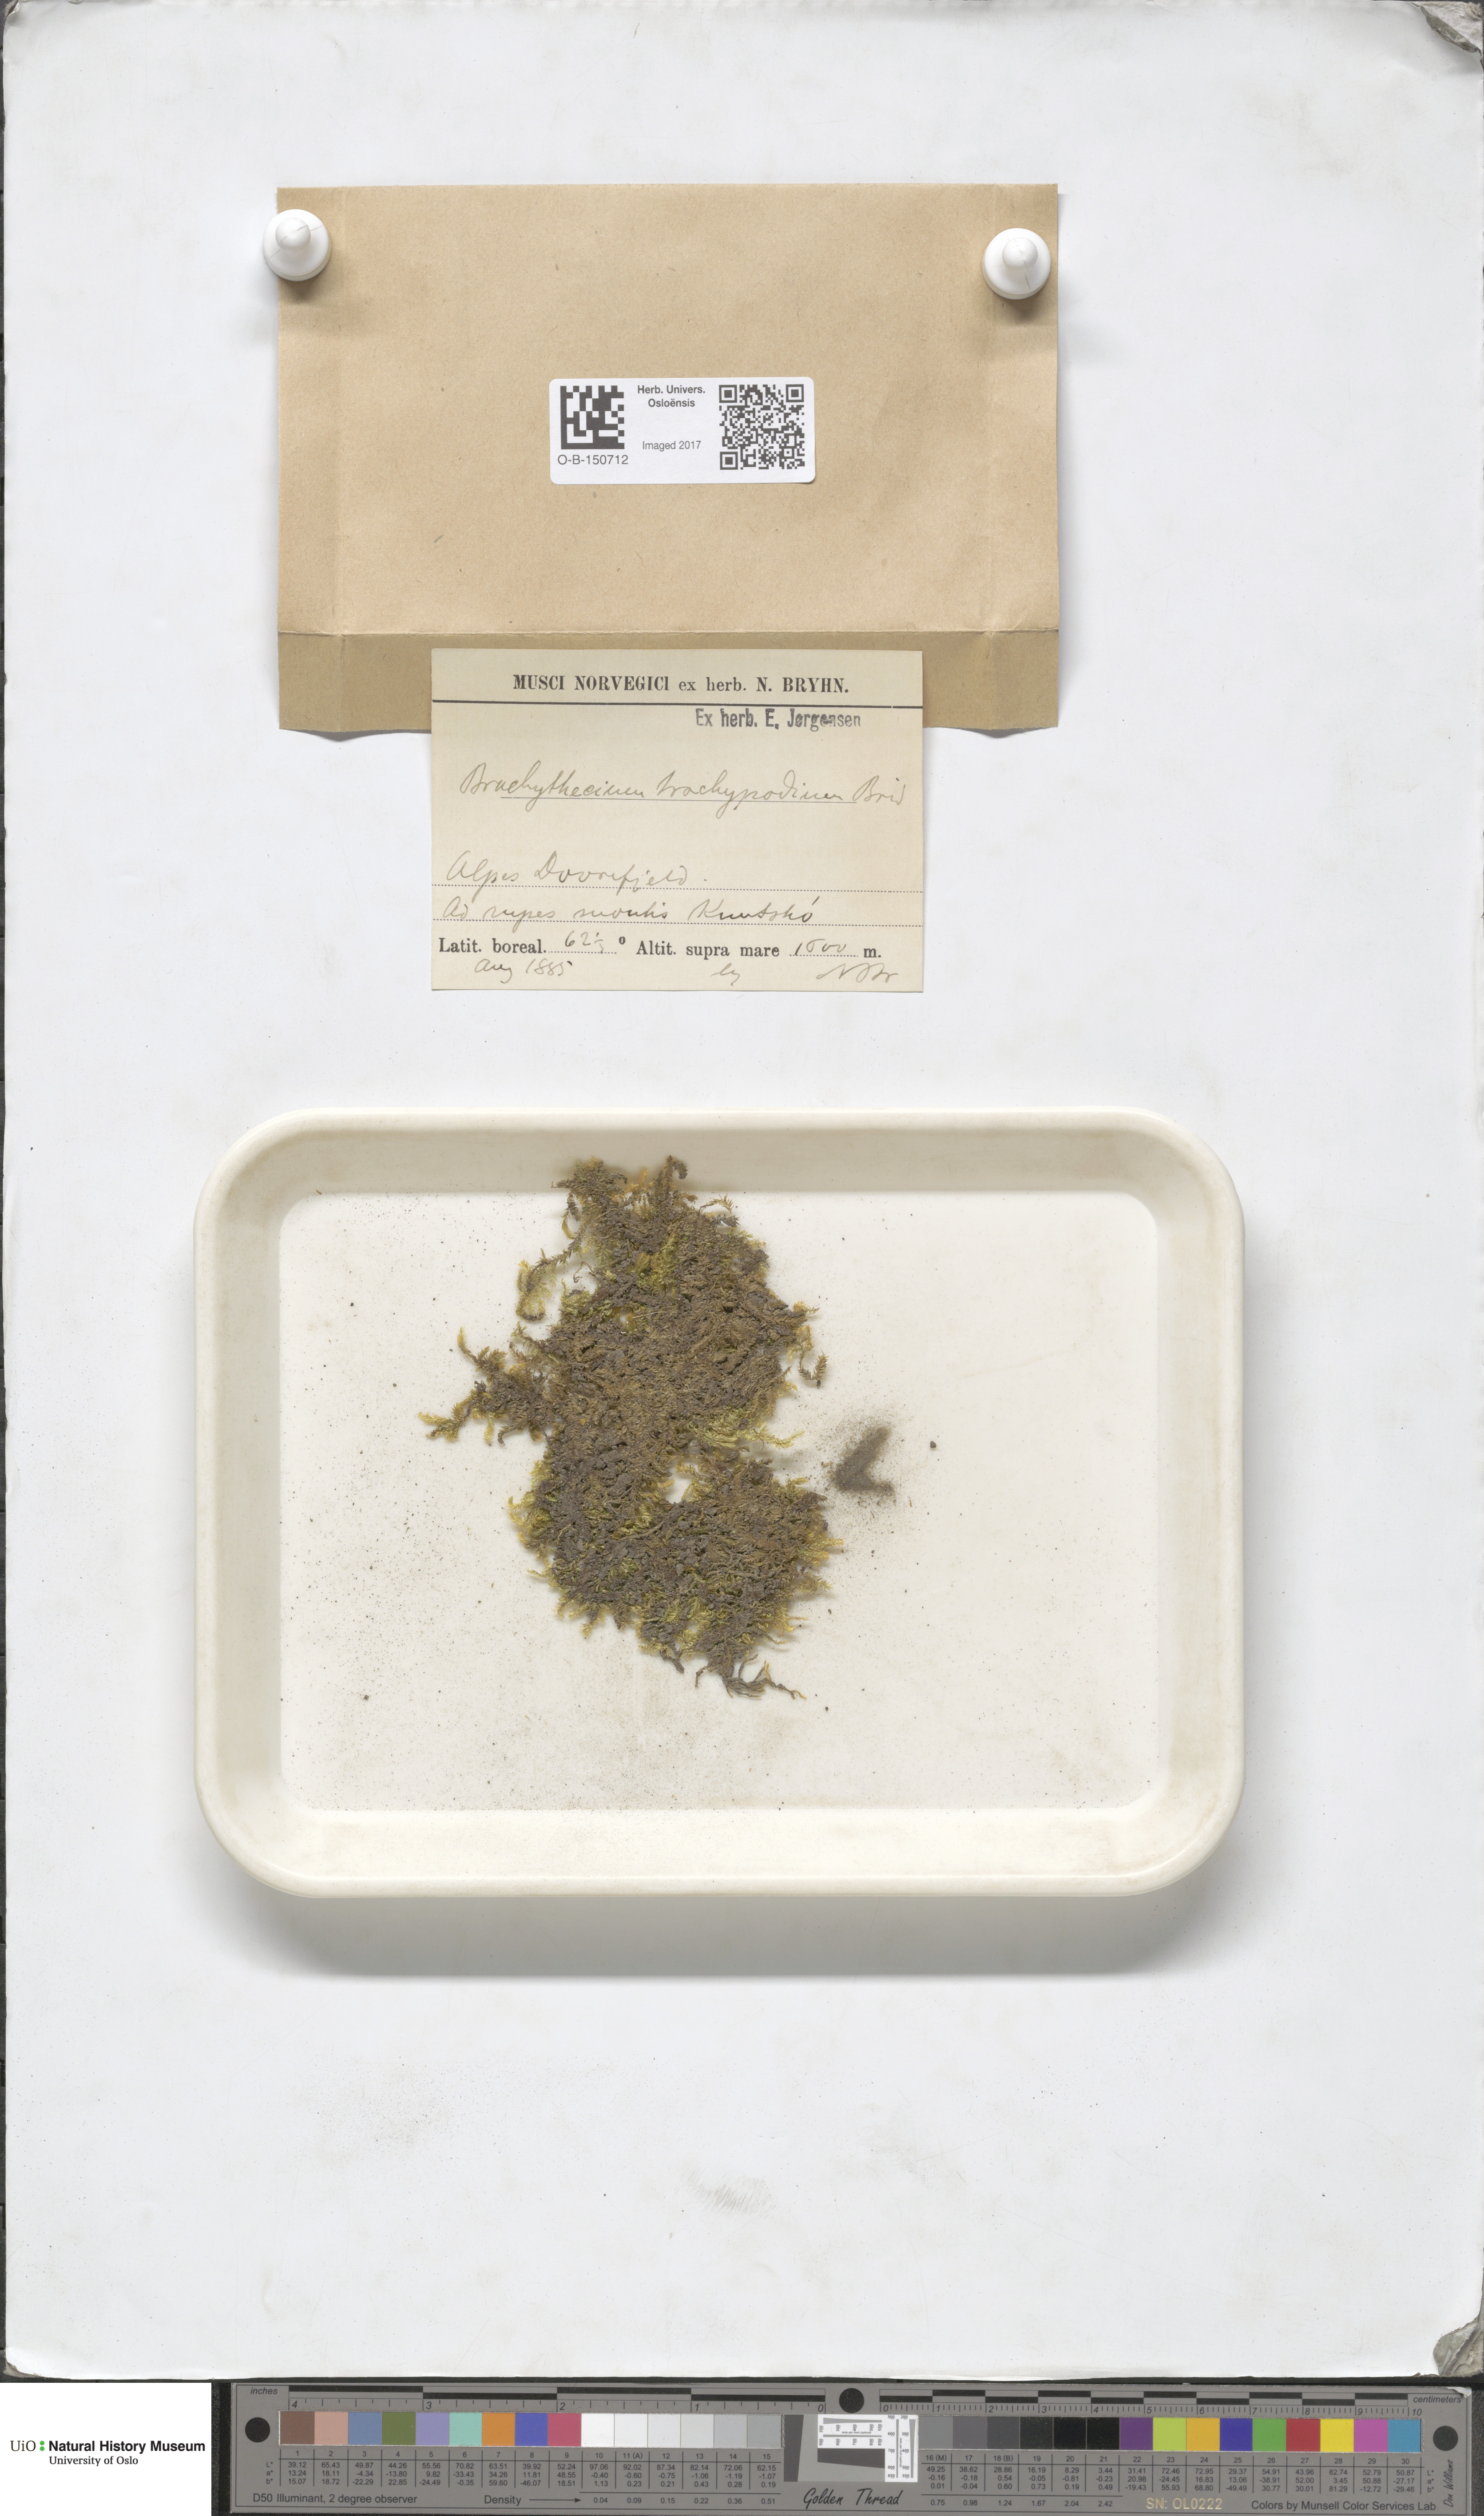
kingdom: Plantae
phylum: Bryophyta
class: Bryopsida
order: Hypnales
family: Brachytheciaceae
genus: Brachytheciastrum
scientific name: Brachytheciastrum trachypodium
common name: Lawers feather-moss
